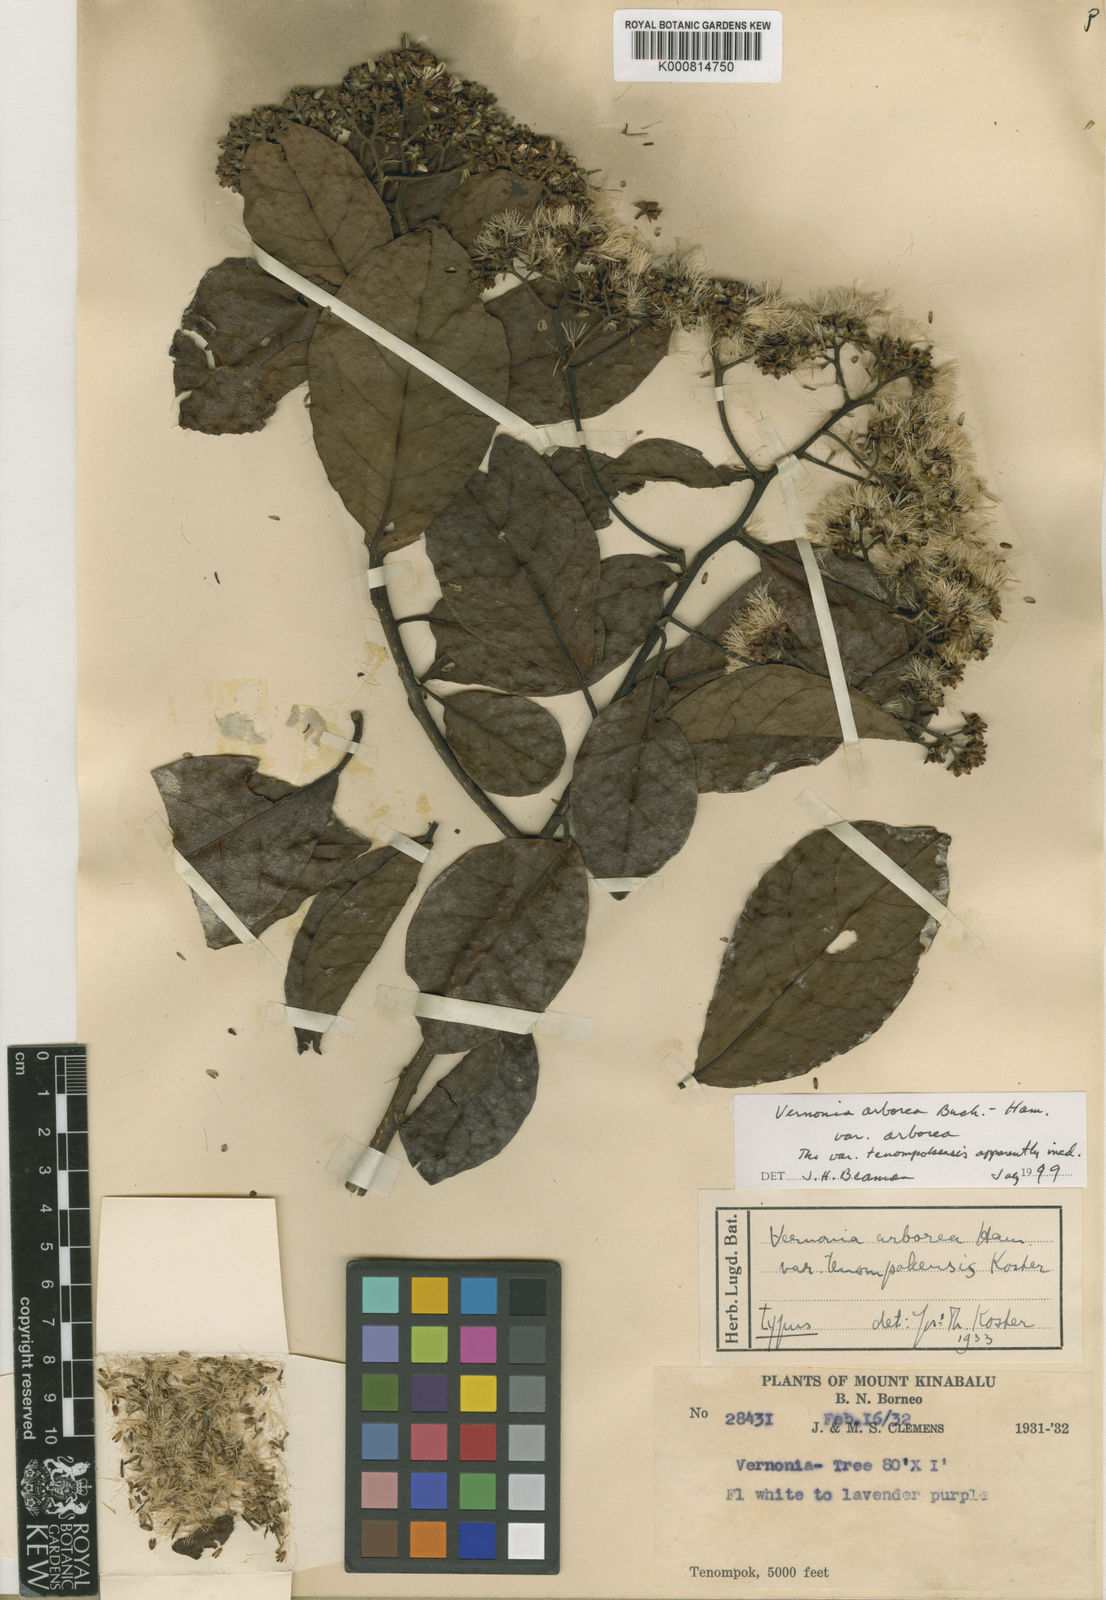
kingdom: Plantae
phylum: Tracheophyta
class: Magnoliopsida
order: Asterales
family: Asteraceae
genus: Strobocalyx
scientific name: Strobocalyx arborea
